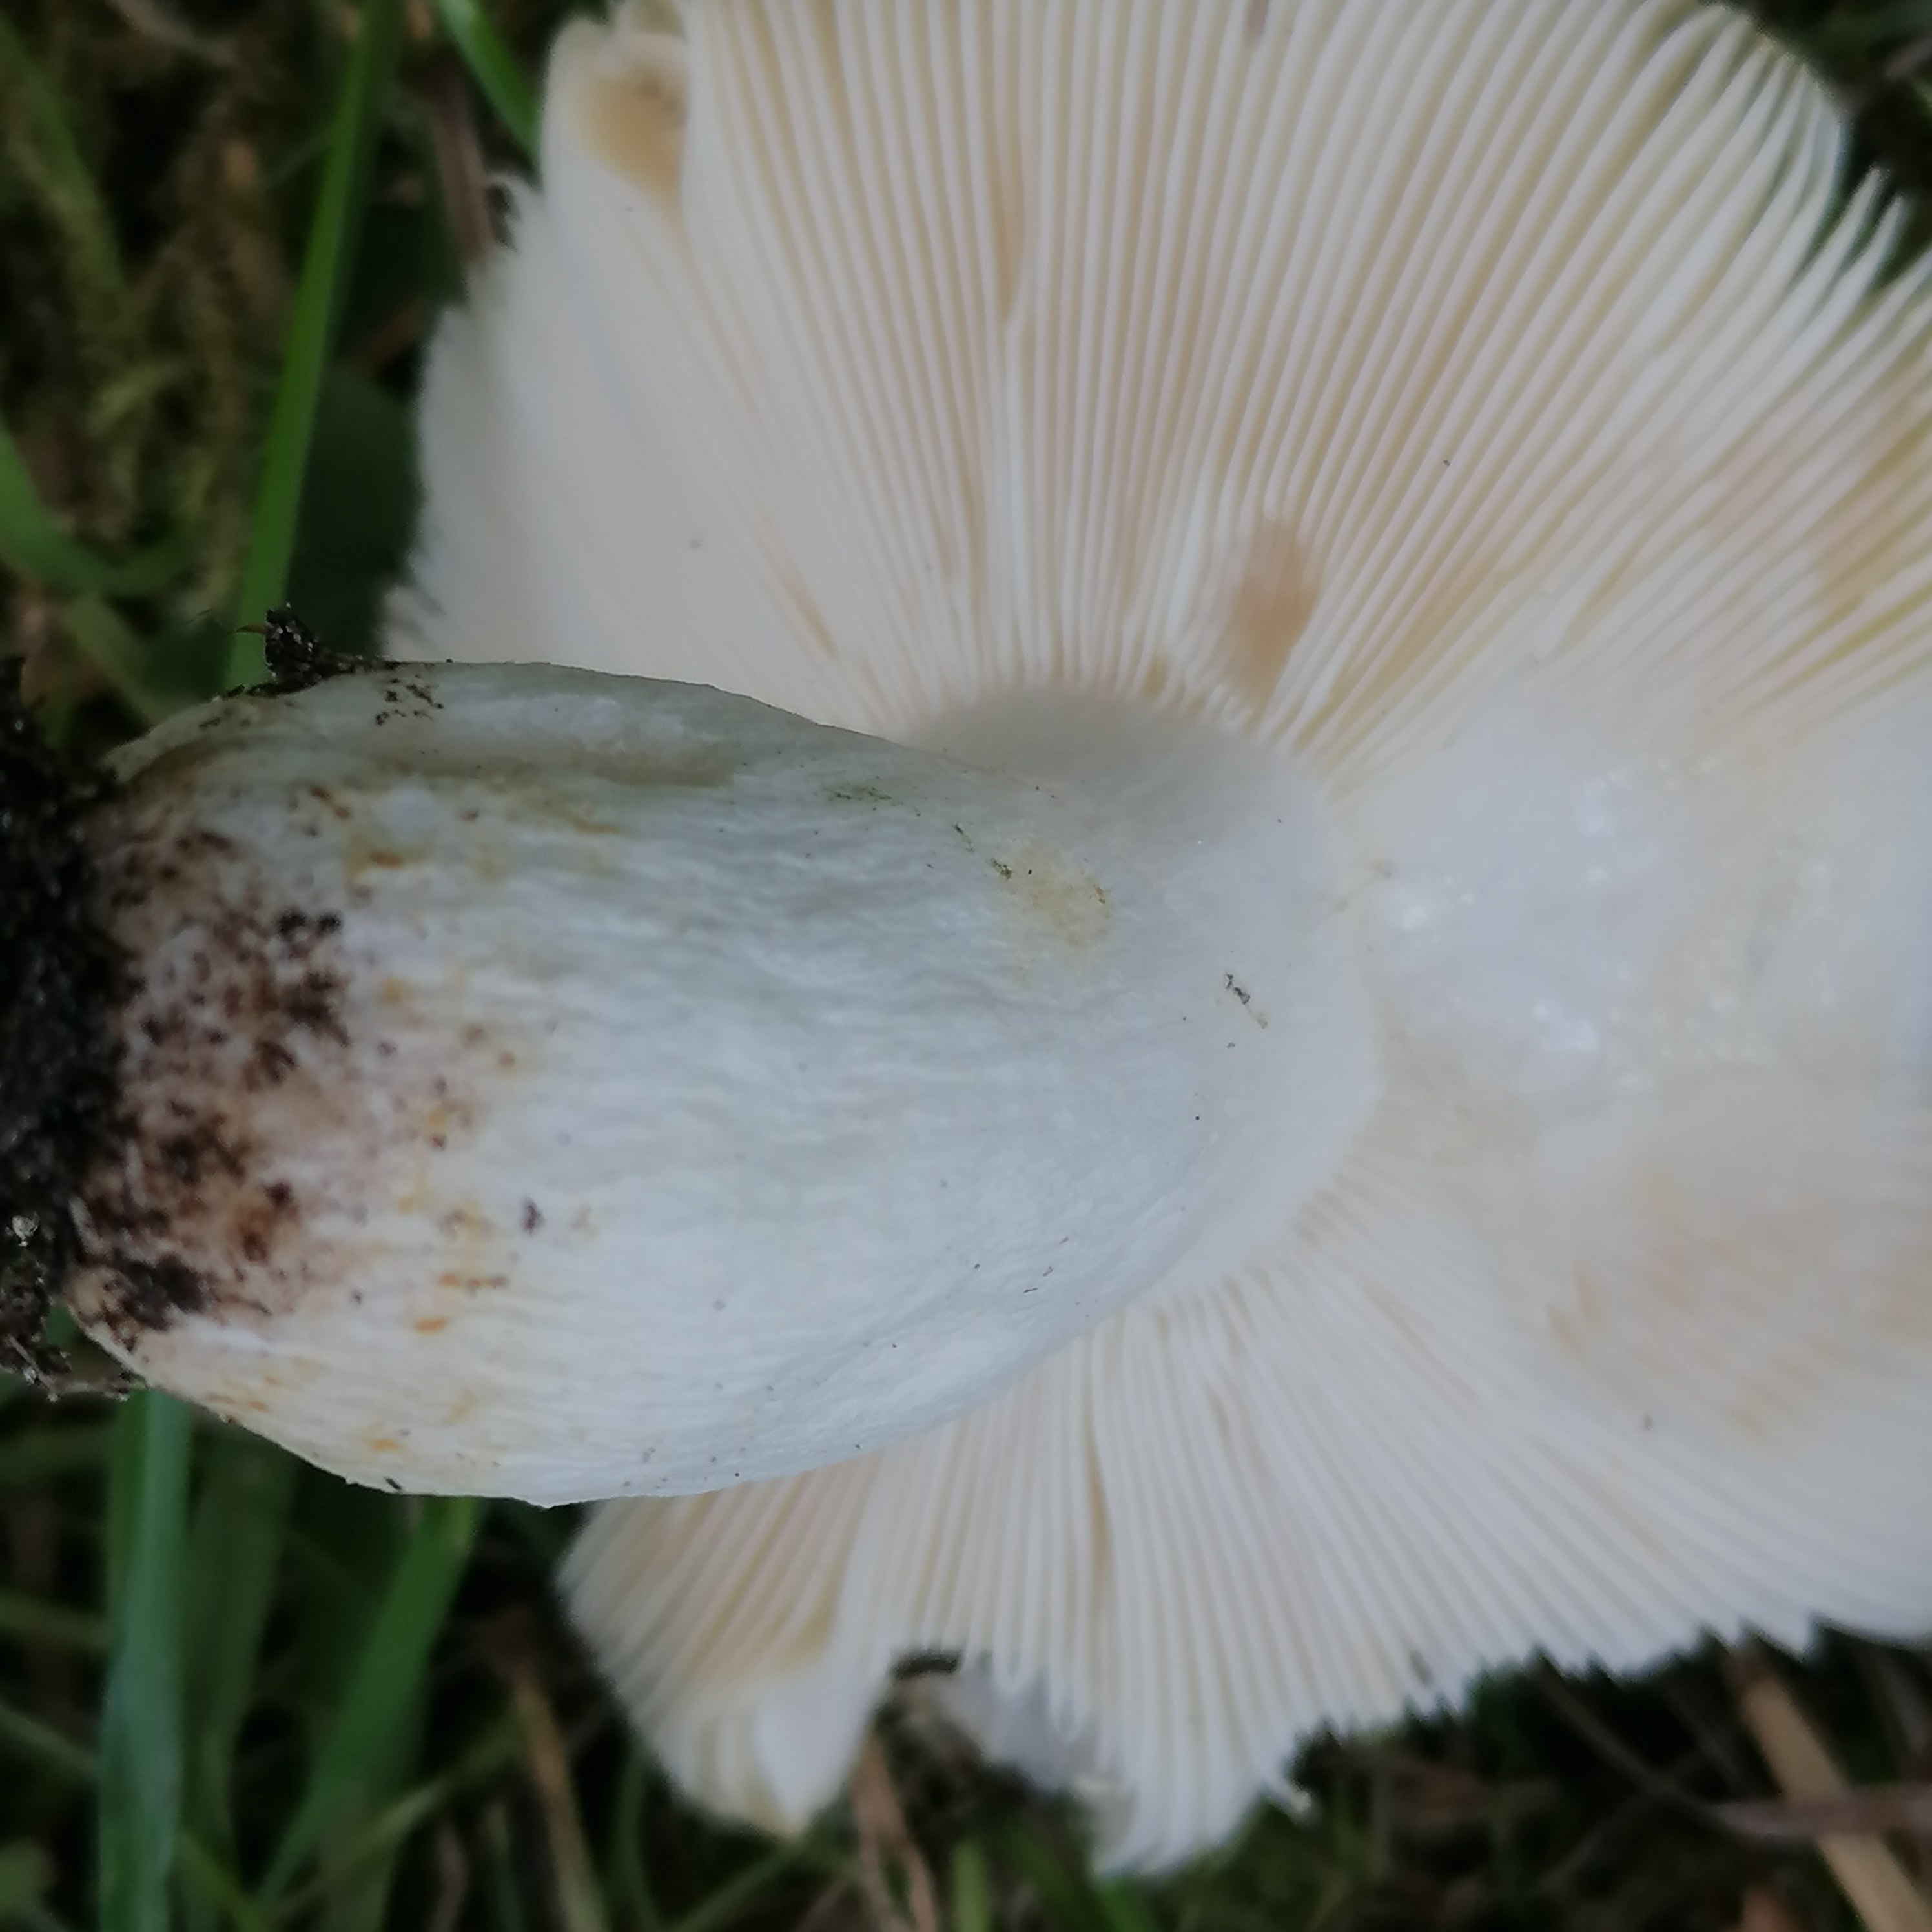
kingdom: Fungi
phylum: Basidiomycota
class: Agaricomycetes
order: Russulales
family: Russulaceae
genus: Russula
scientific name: Russula aeruginea
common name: græsgrøn skørhat
